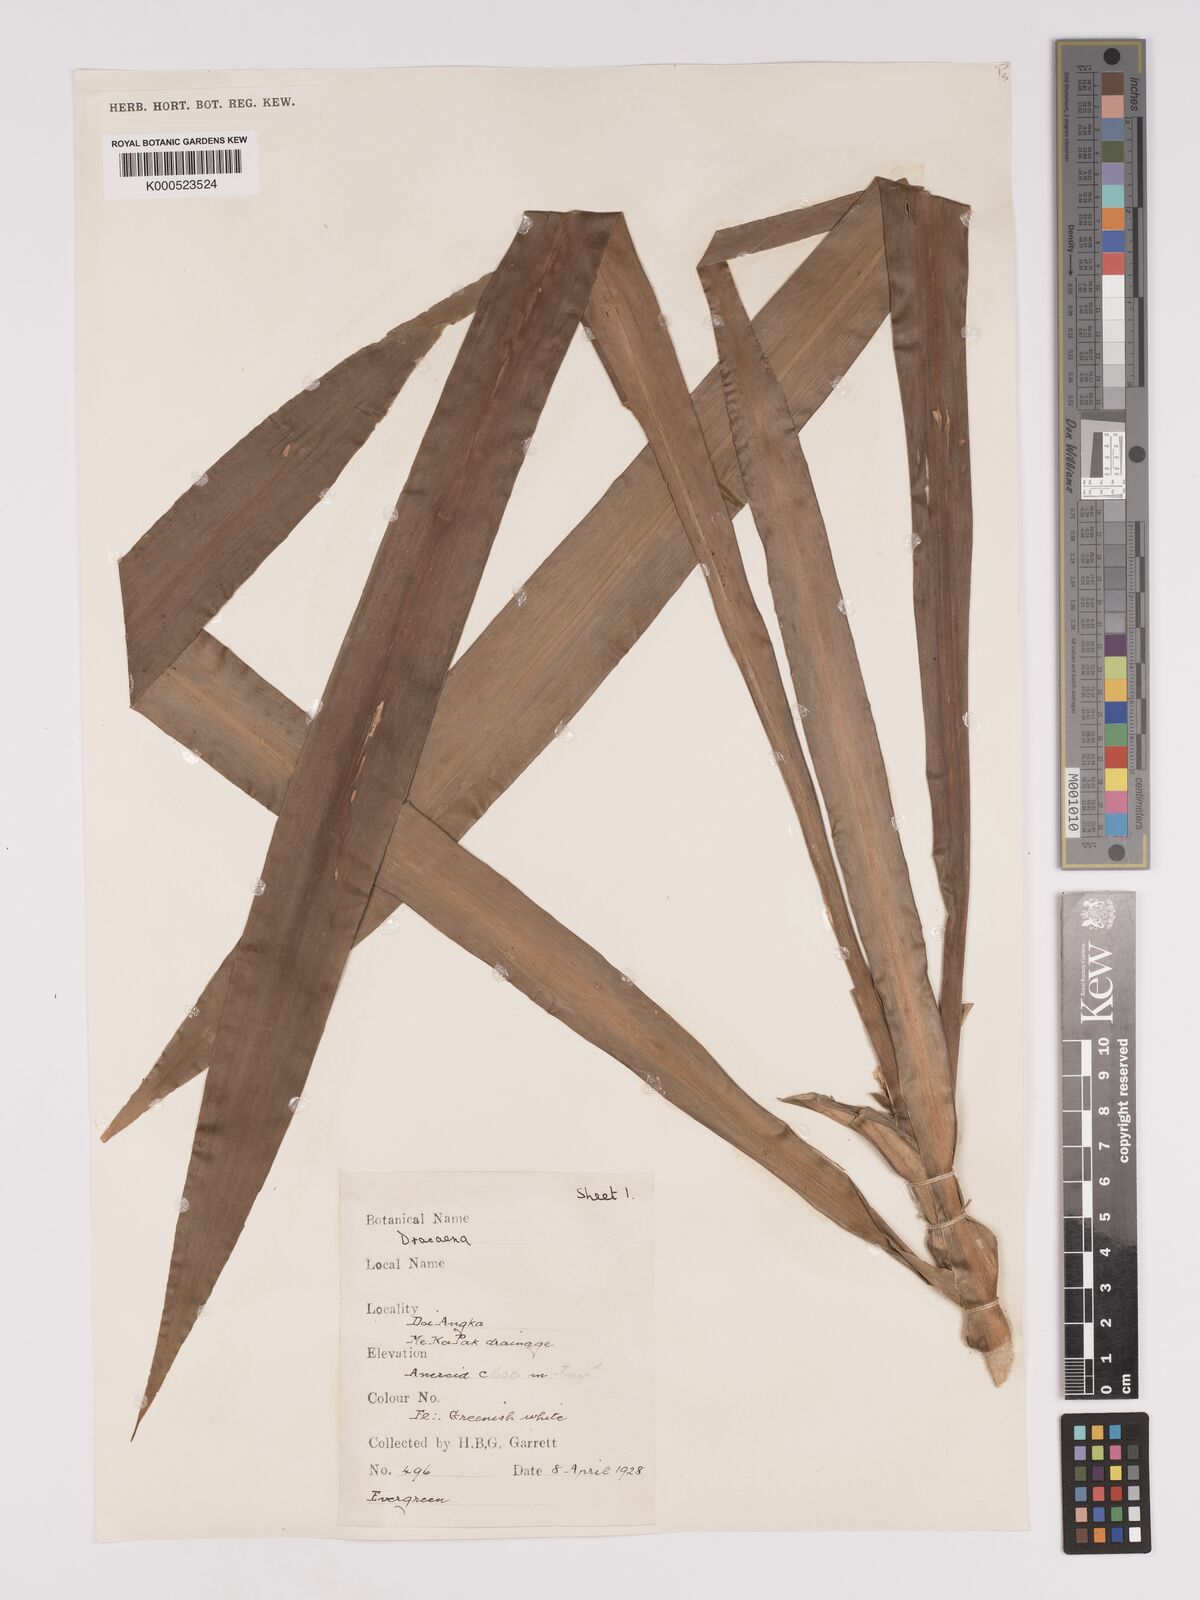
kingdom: Plantae
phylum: Tracheophyta
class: Liliopsida
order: Asparagales
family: Asparagaceae
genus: Dracaena
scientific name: Dracaena
